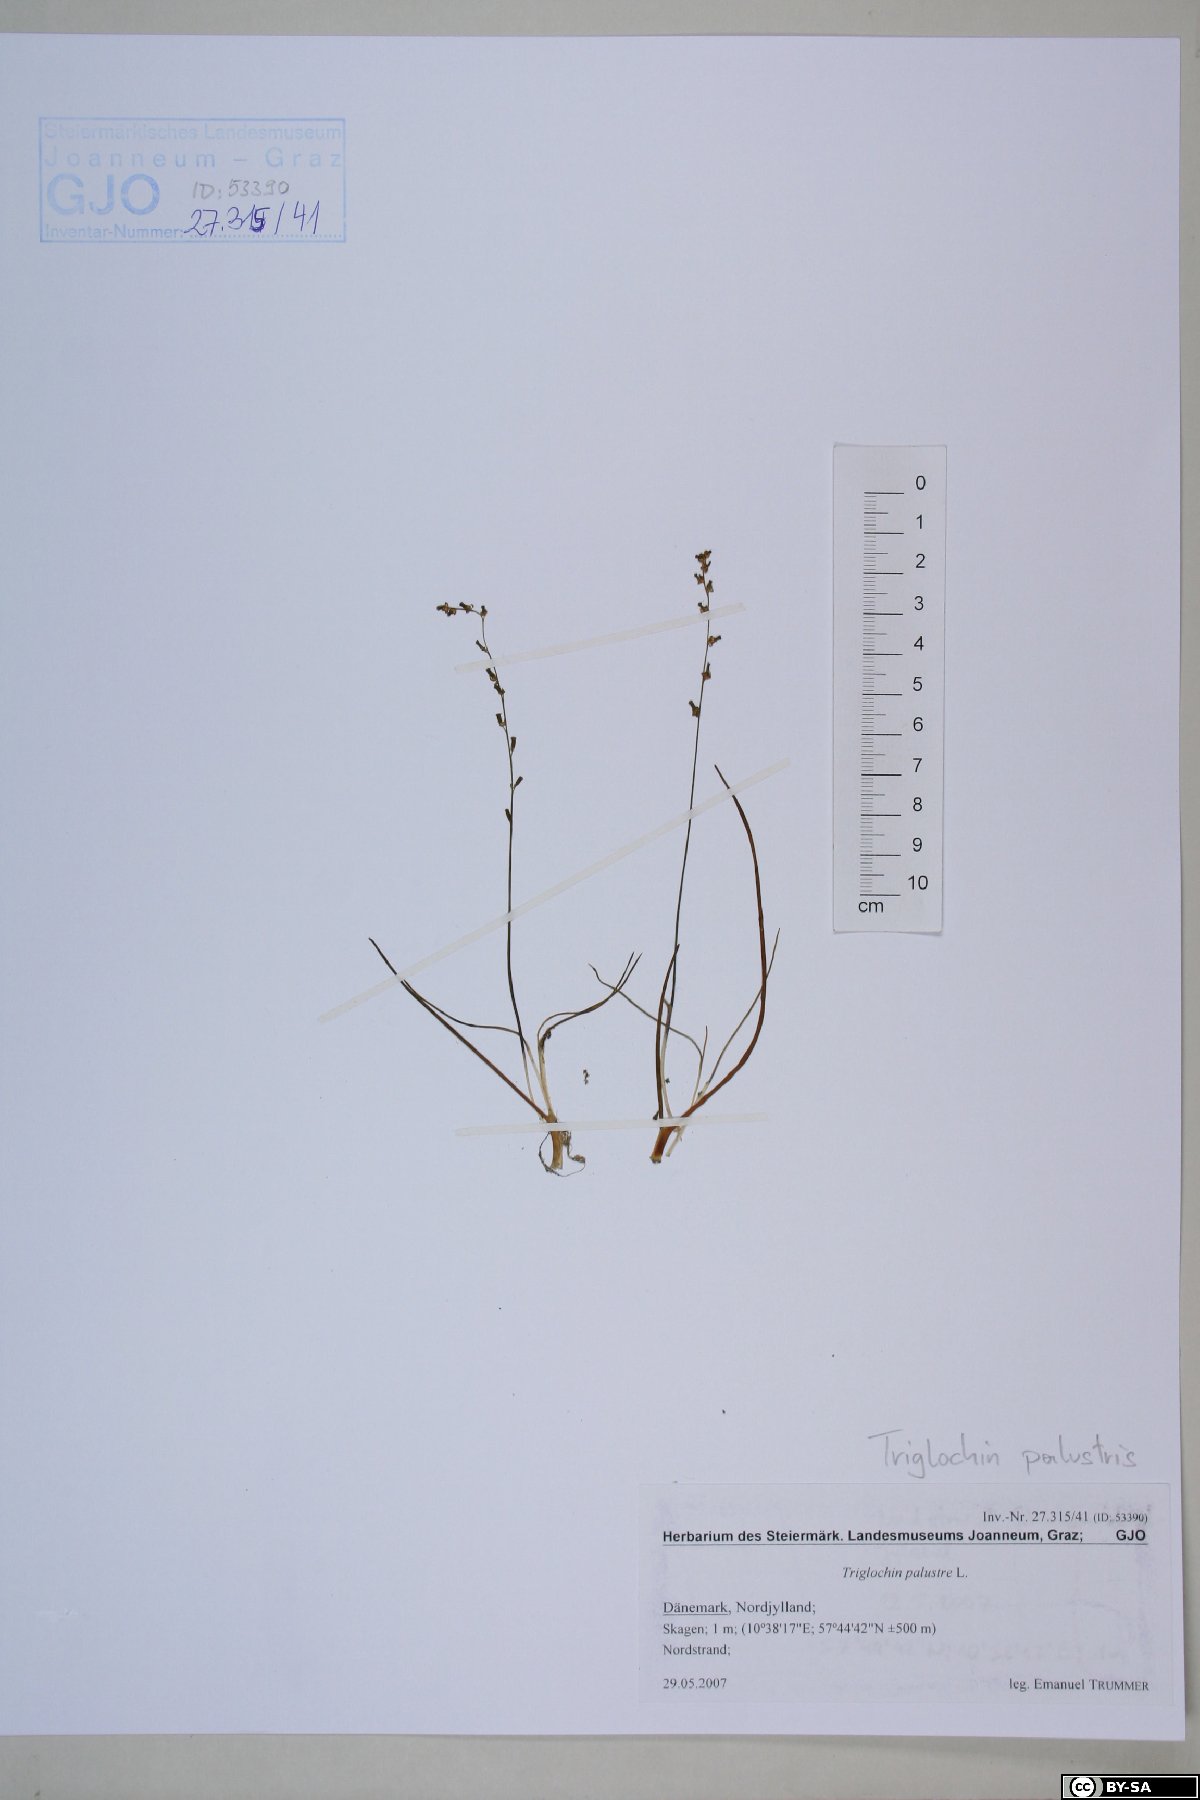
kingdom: Plantae
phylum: Tracheophyta
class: Liliopsida
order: Alismatales
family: Juncaginaceae
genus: Triglochin
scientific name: Triglochin palustris
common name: Marsh arrowgrass
